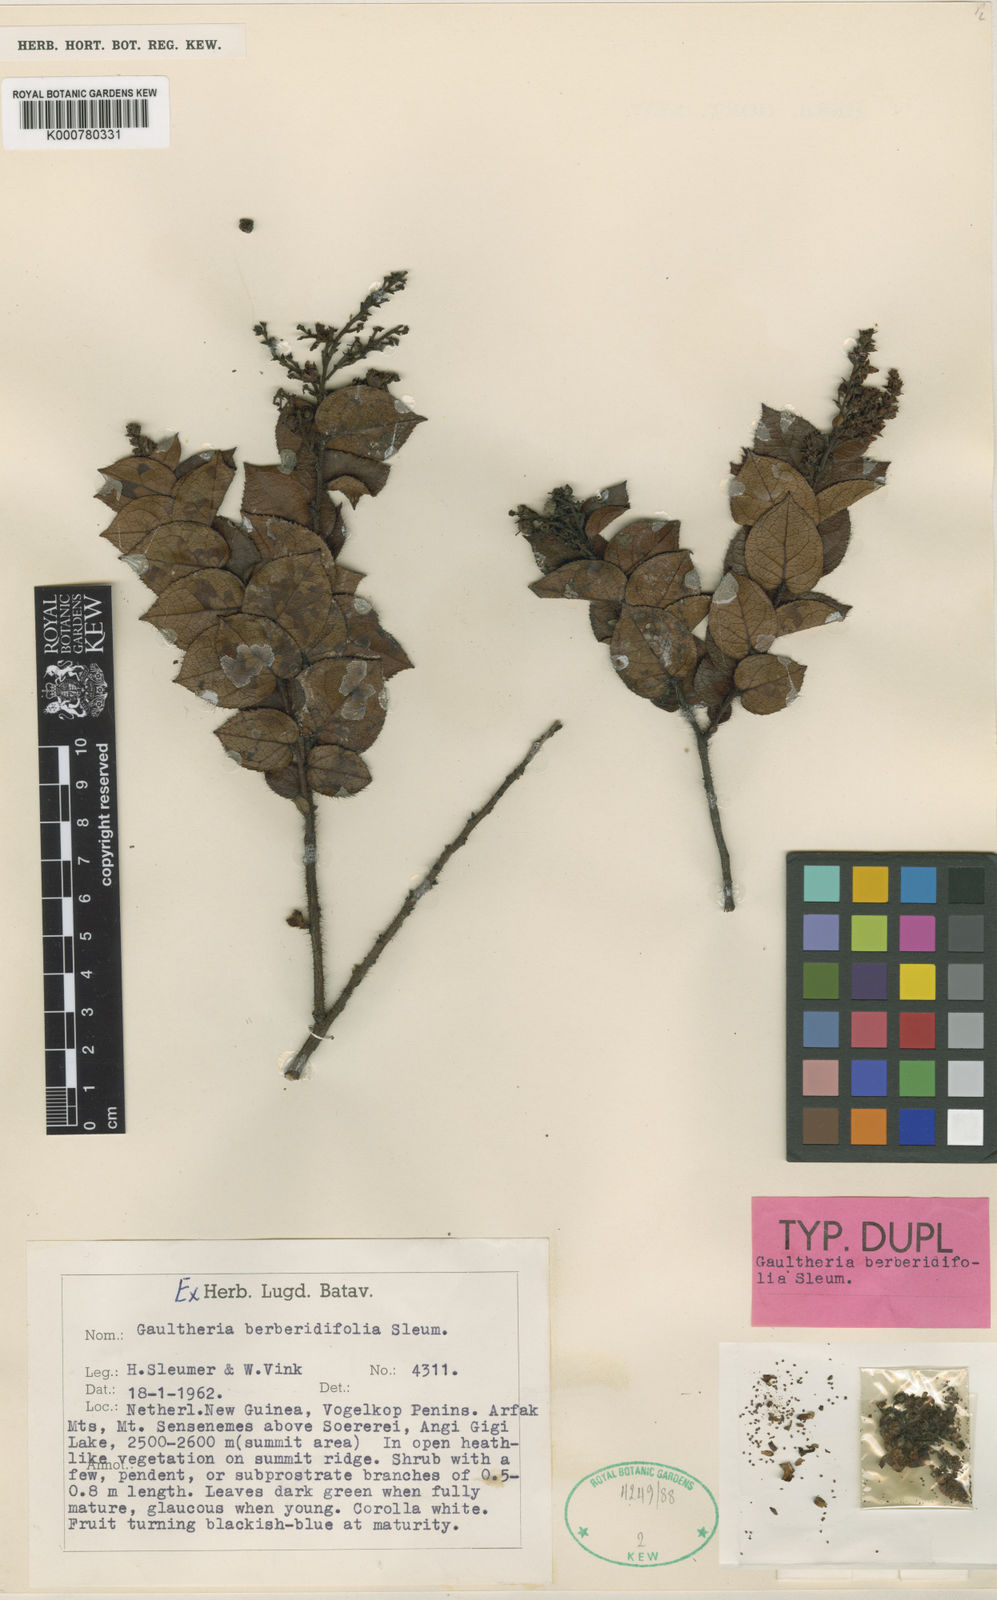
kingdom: Plantae
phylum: Tracheophyta
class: Magnoliopsida
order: Ericales
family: Ericaceae
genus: Gaultheria
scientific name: Gaultheria berberidifolia
